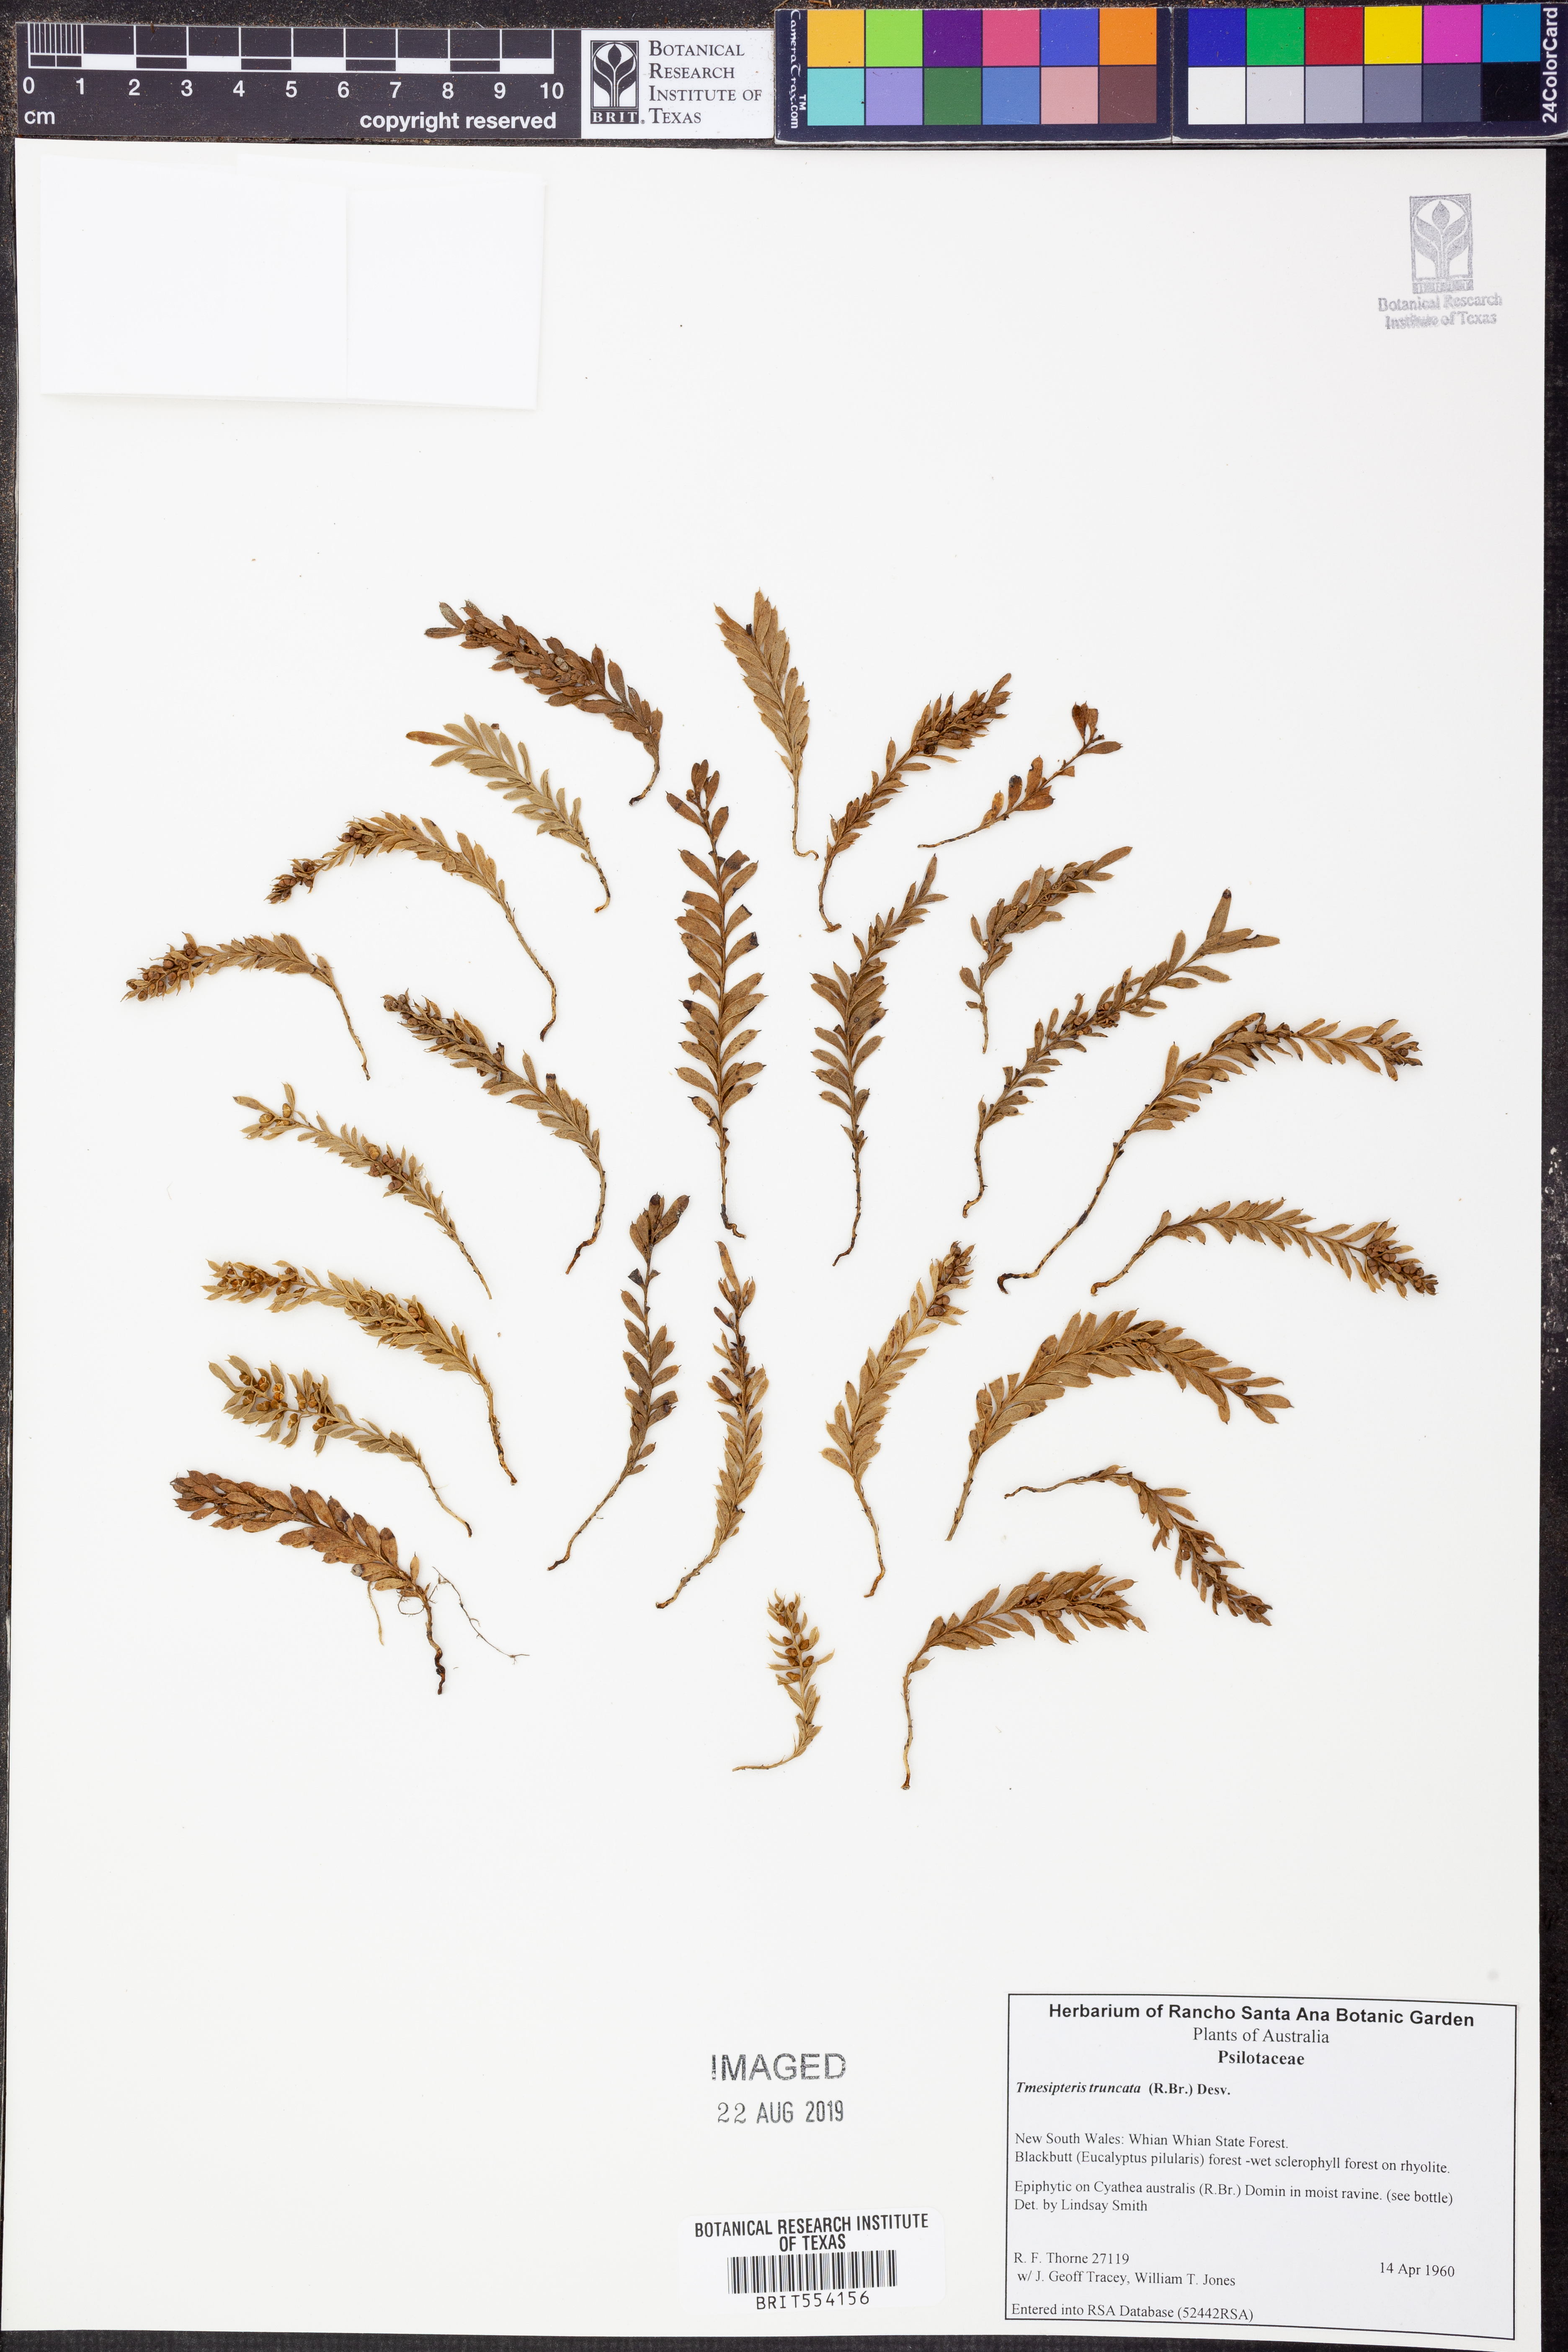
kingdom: Plantae
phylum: Tracheophyta
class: Polypodiopsida
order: Psilotales
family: Psilotaceae
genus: Tmesipteris
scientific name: Tmesipteris truncata
